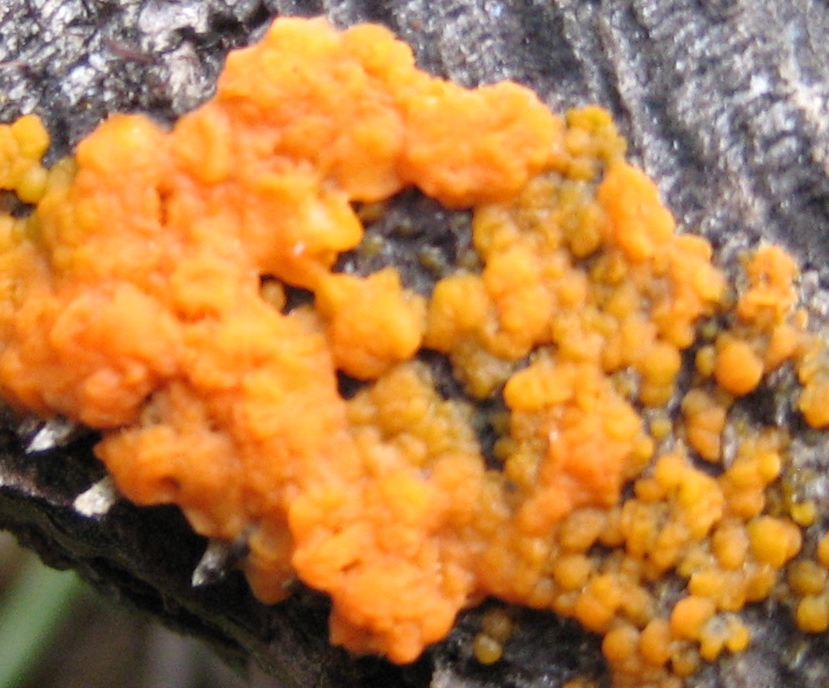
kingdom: Fungi
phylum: Basidiomycota
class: Dacrymycetes
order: Dacrymycetales
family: Dacrymycetaceae
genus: Dacrymyces
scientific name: Dacrymyces stillatus
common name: almindelig tåresvamp
